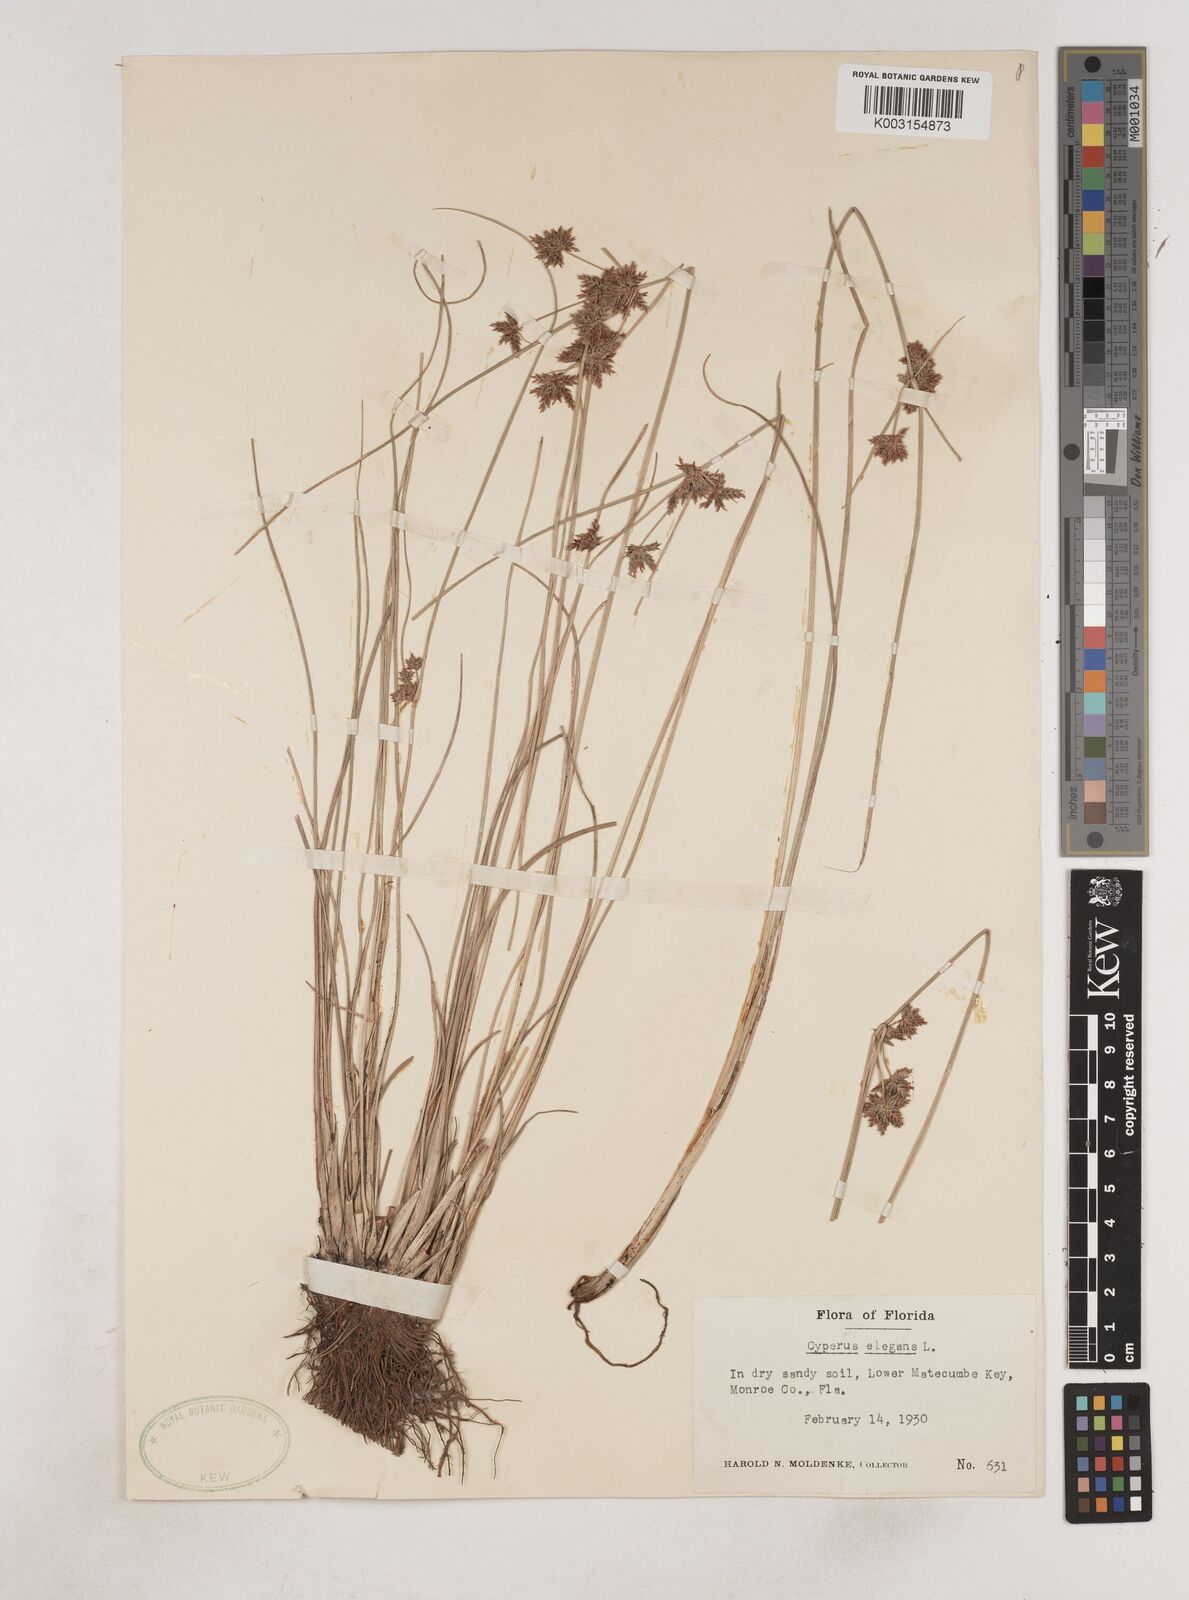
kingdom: Plantae
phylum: Tracheophyta
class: Liliopsida
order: Poales
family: Cyperaceae
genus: Cyperus
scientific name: Cyperus elegans
